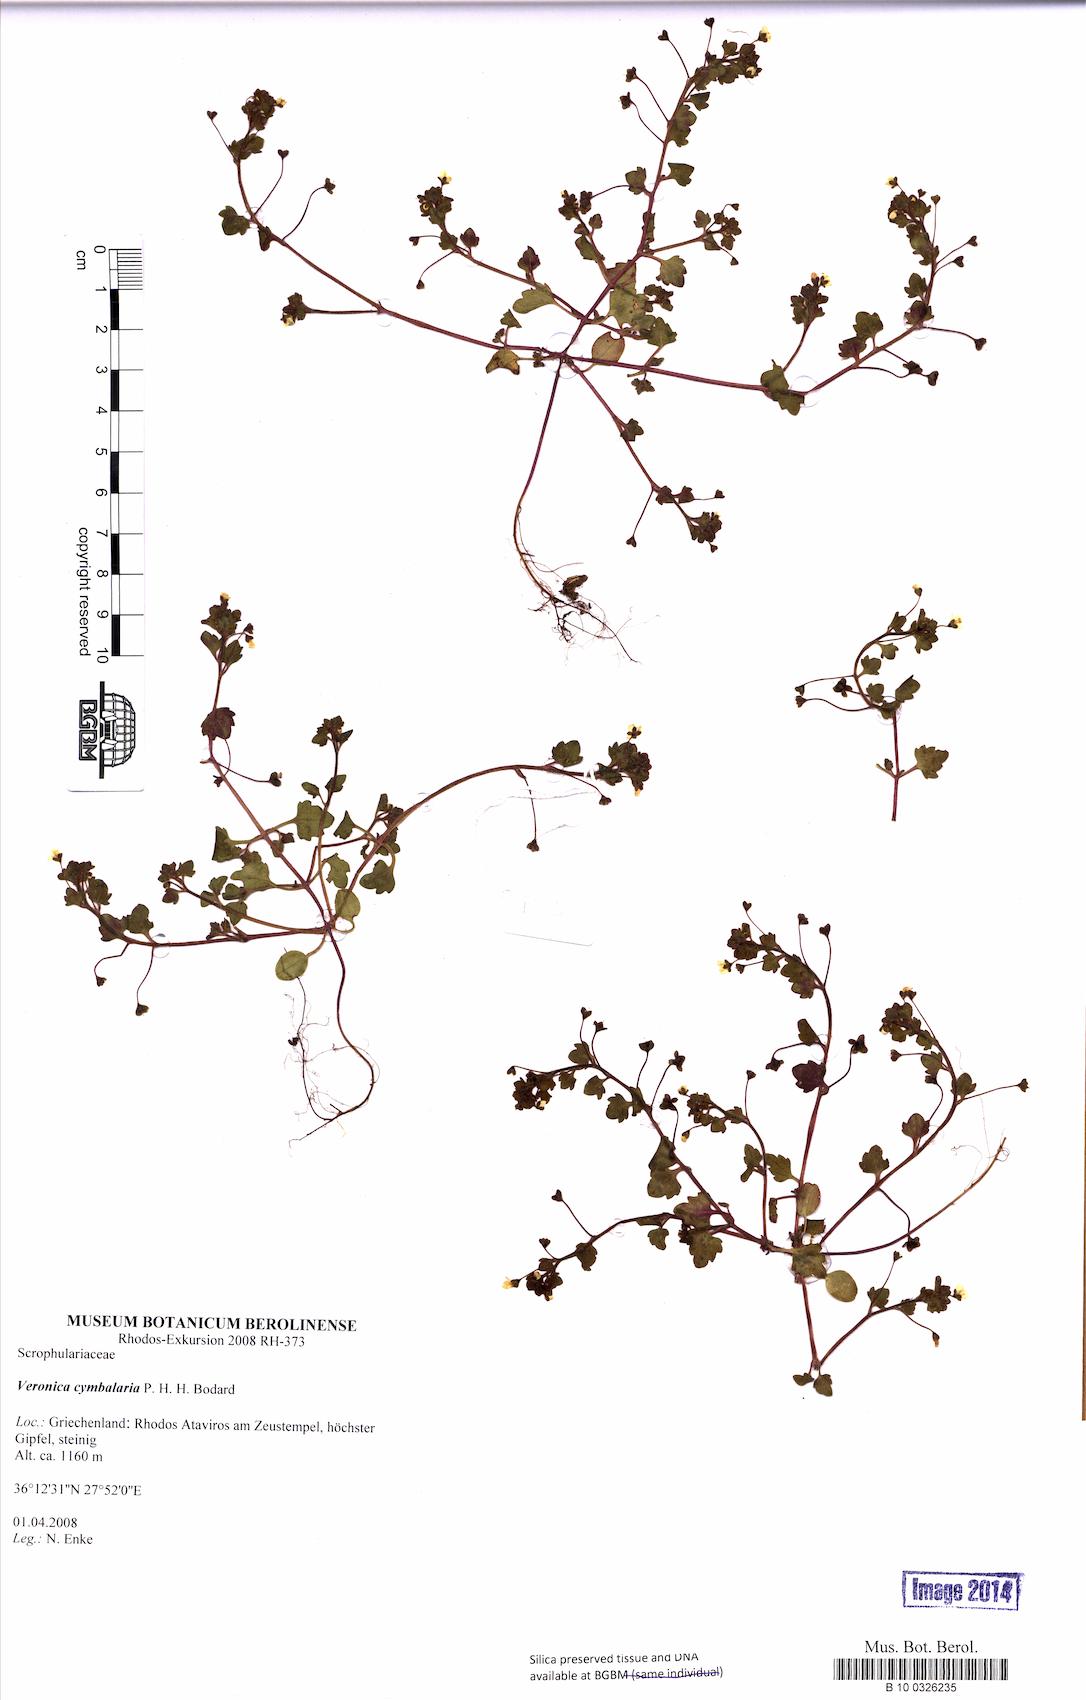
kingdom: Plantae
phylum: Tracheophyta
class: Magnoliopsida
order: Lamiales
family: Plantaginaceae
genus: Veronica
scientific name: Veronica cymbalaria
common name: Pale speedwell
